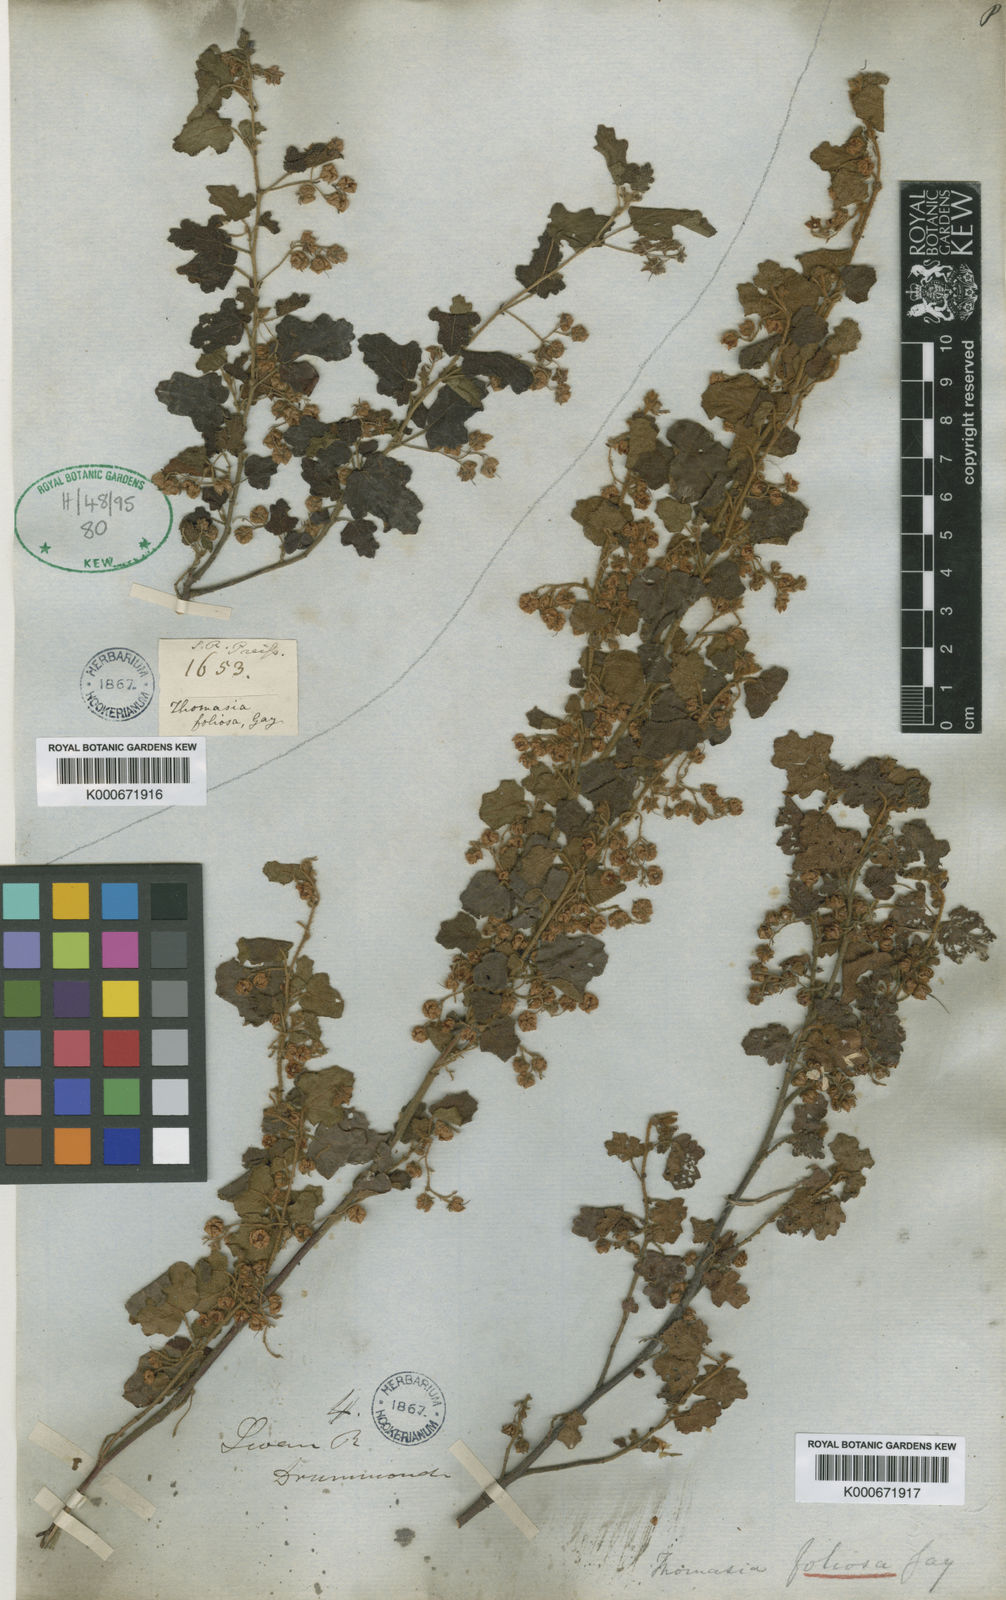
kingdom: Plantae
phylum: Tracheophyta
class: Magnoliopsida
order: Malvales
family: Malvaceae
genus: Thomasia
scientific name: Thomasia foliosa
